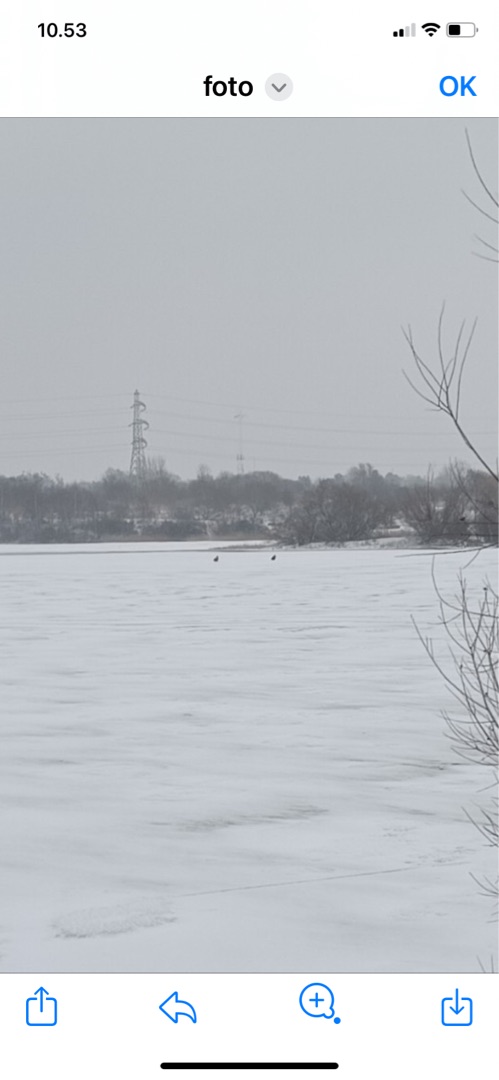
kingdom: Animalia
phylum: Chordata
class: Aves
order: Accipitriformes
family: Accipitridae
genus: Haliaeetus
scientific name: Haliaeetus albicilla
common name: Havørn
